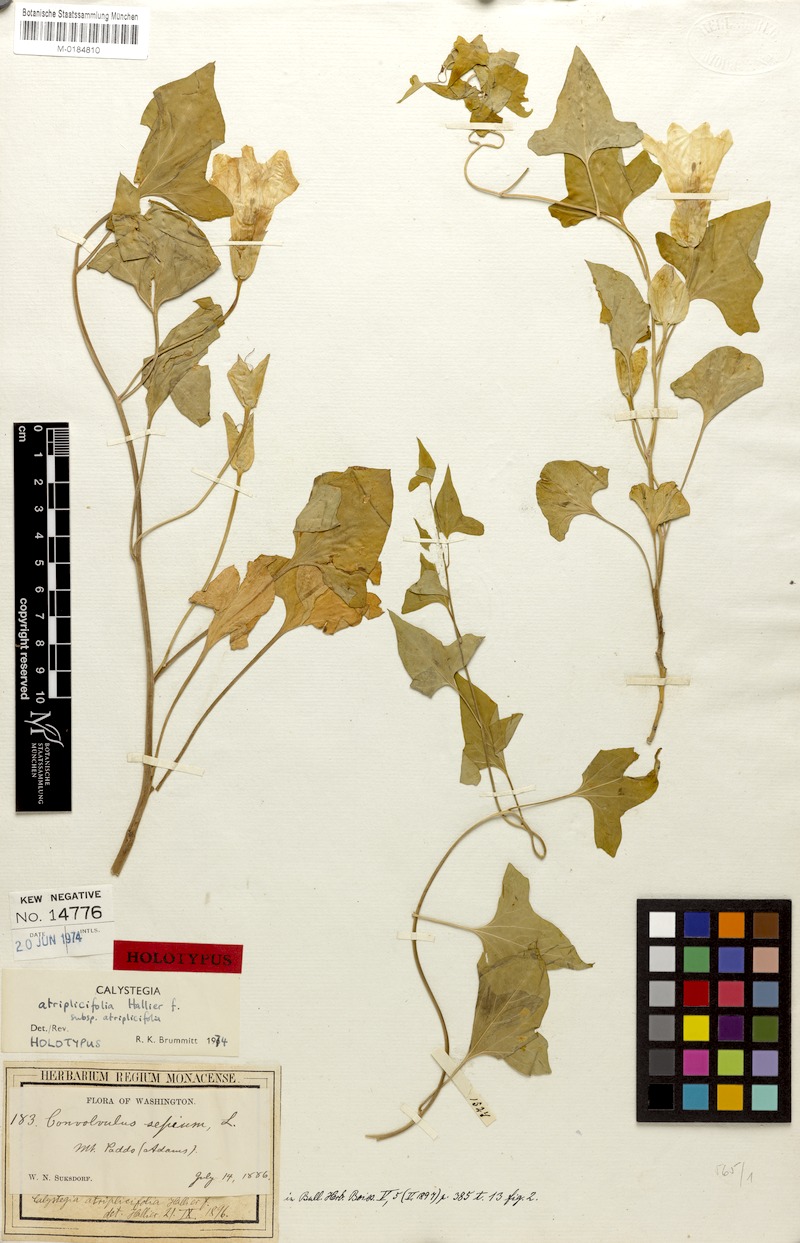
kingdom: Plantae
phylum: Tracheophyta
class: Magnoliopsida
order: Solanales
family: Convolvulaceae
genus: Calystegia
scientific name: Calystegia atriplicifolia
